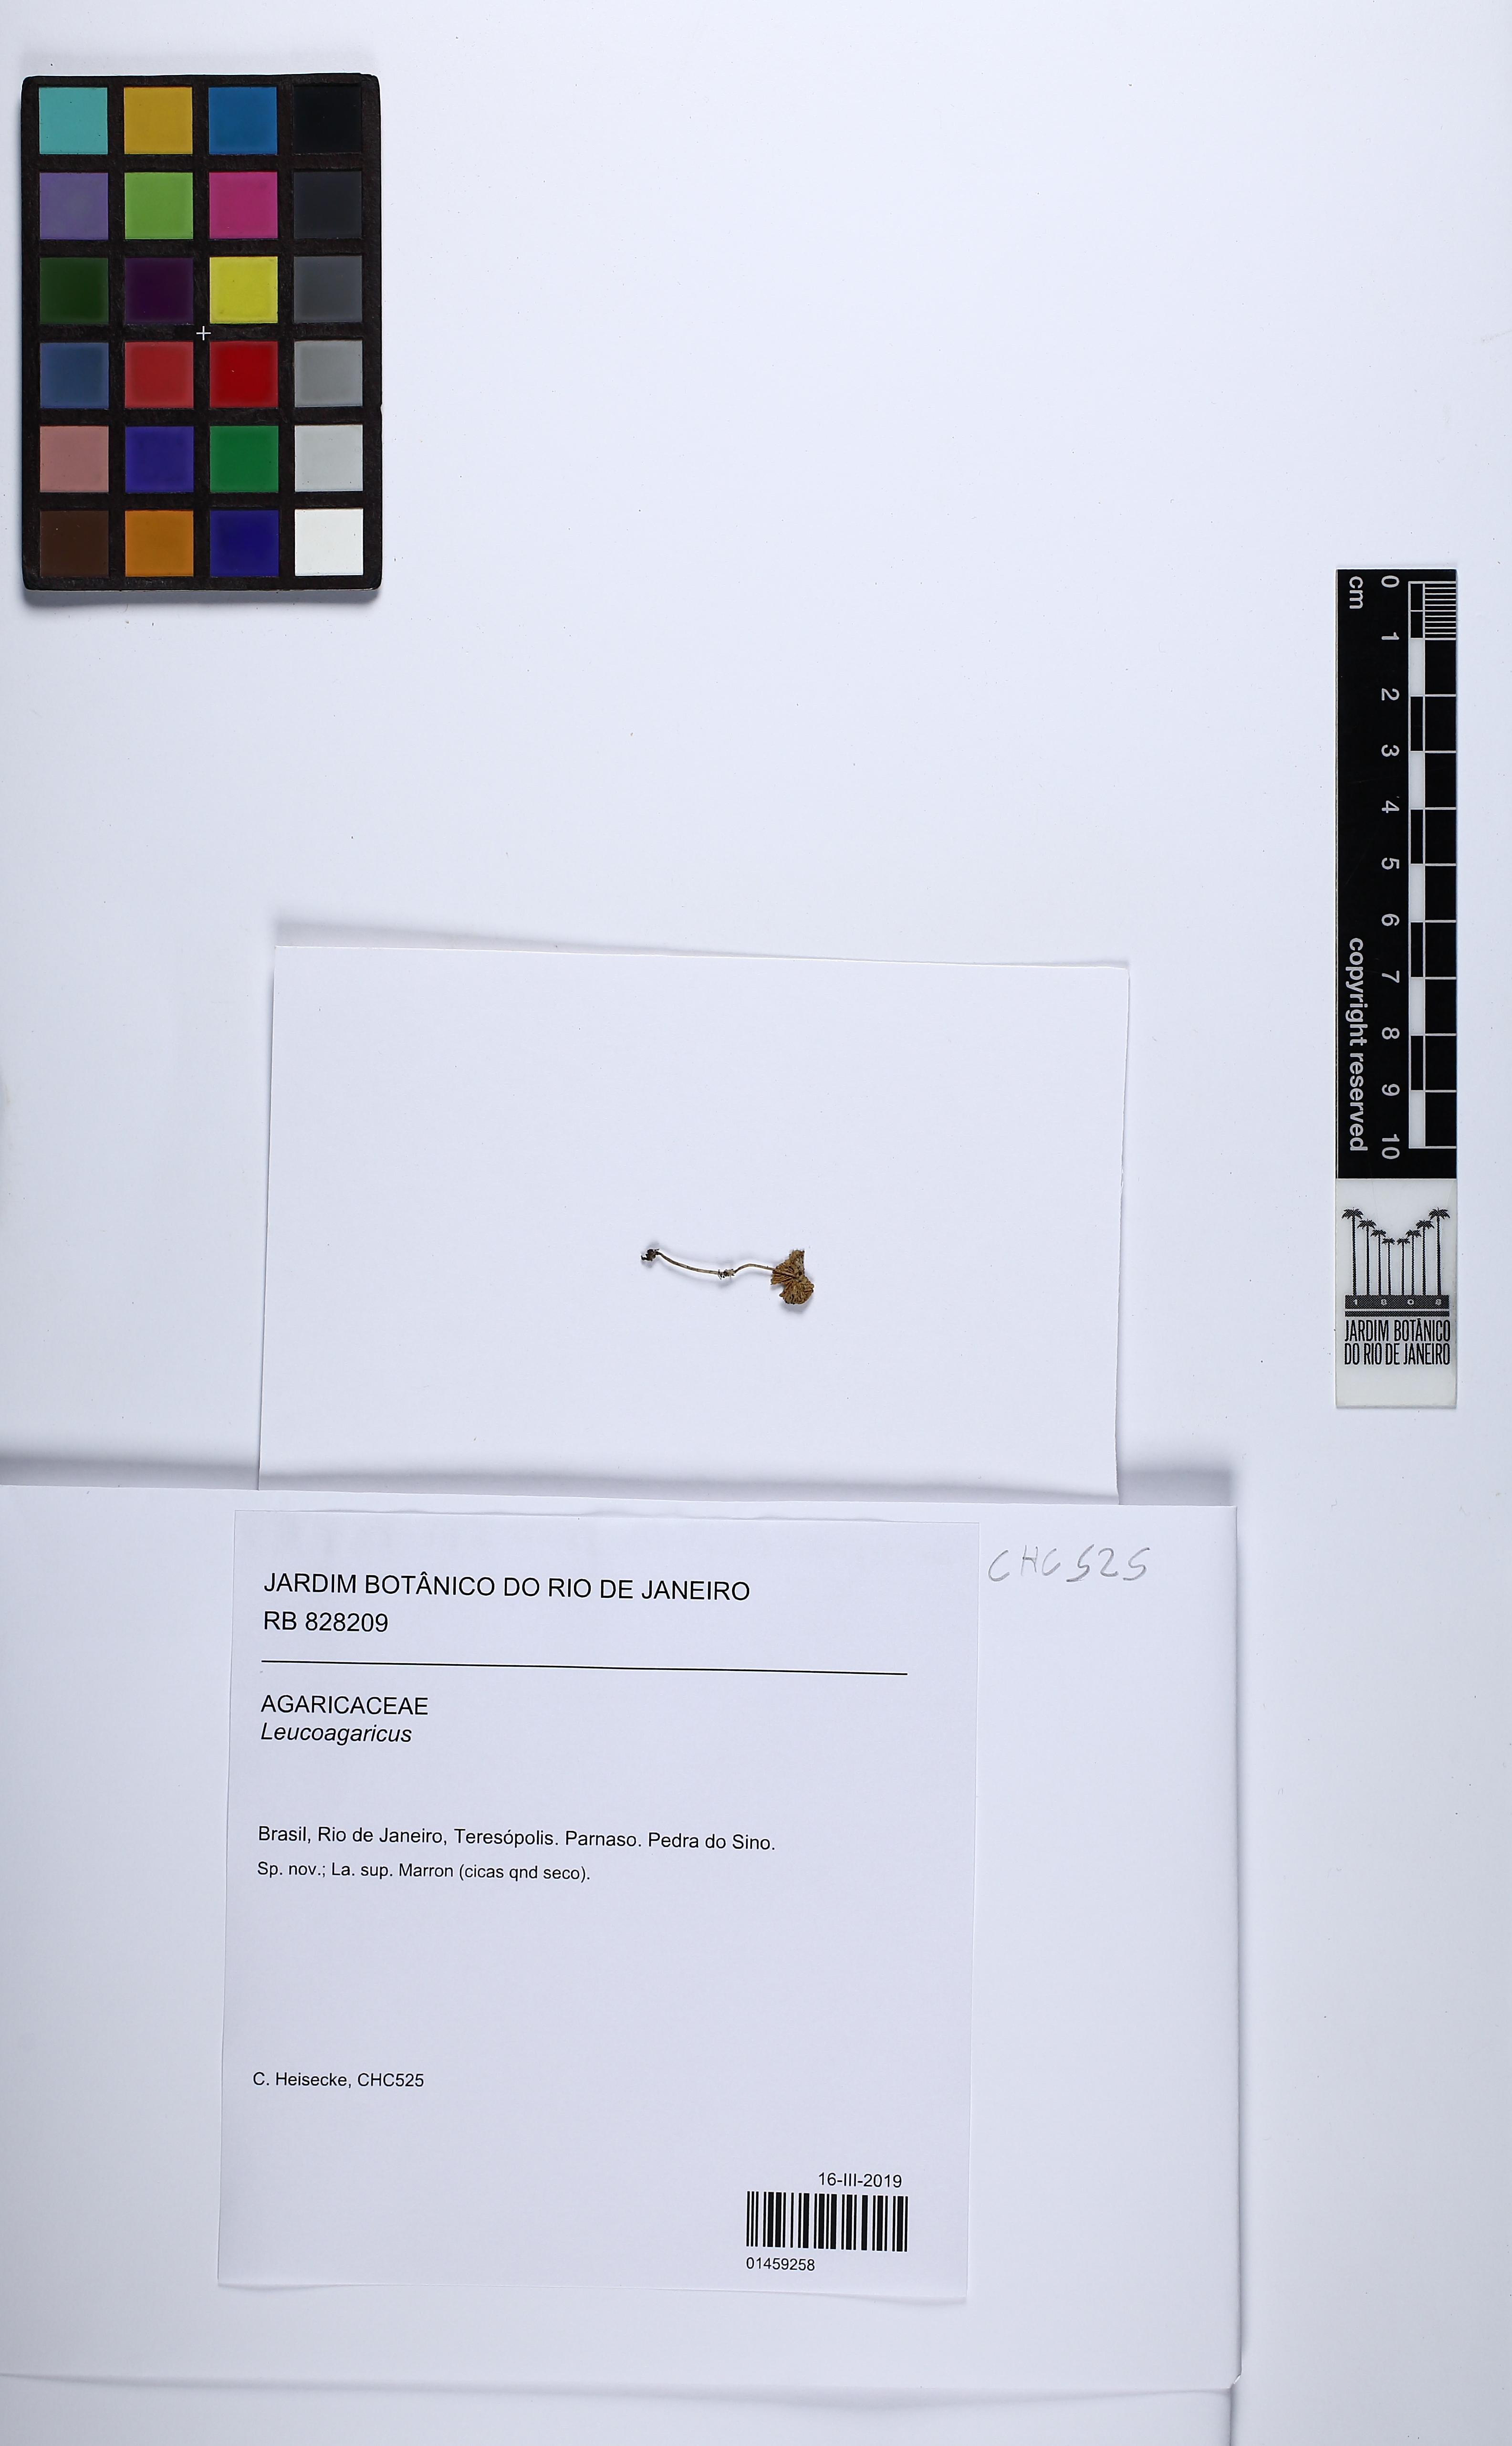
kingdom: Fungi
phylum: Basidiomycota
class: Agaricomycetes
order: Agaricales
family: Agaricaceae
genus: Leucoagaricus
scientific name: Leucoagaricus
